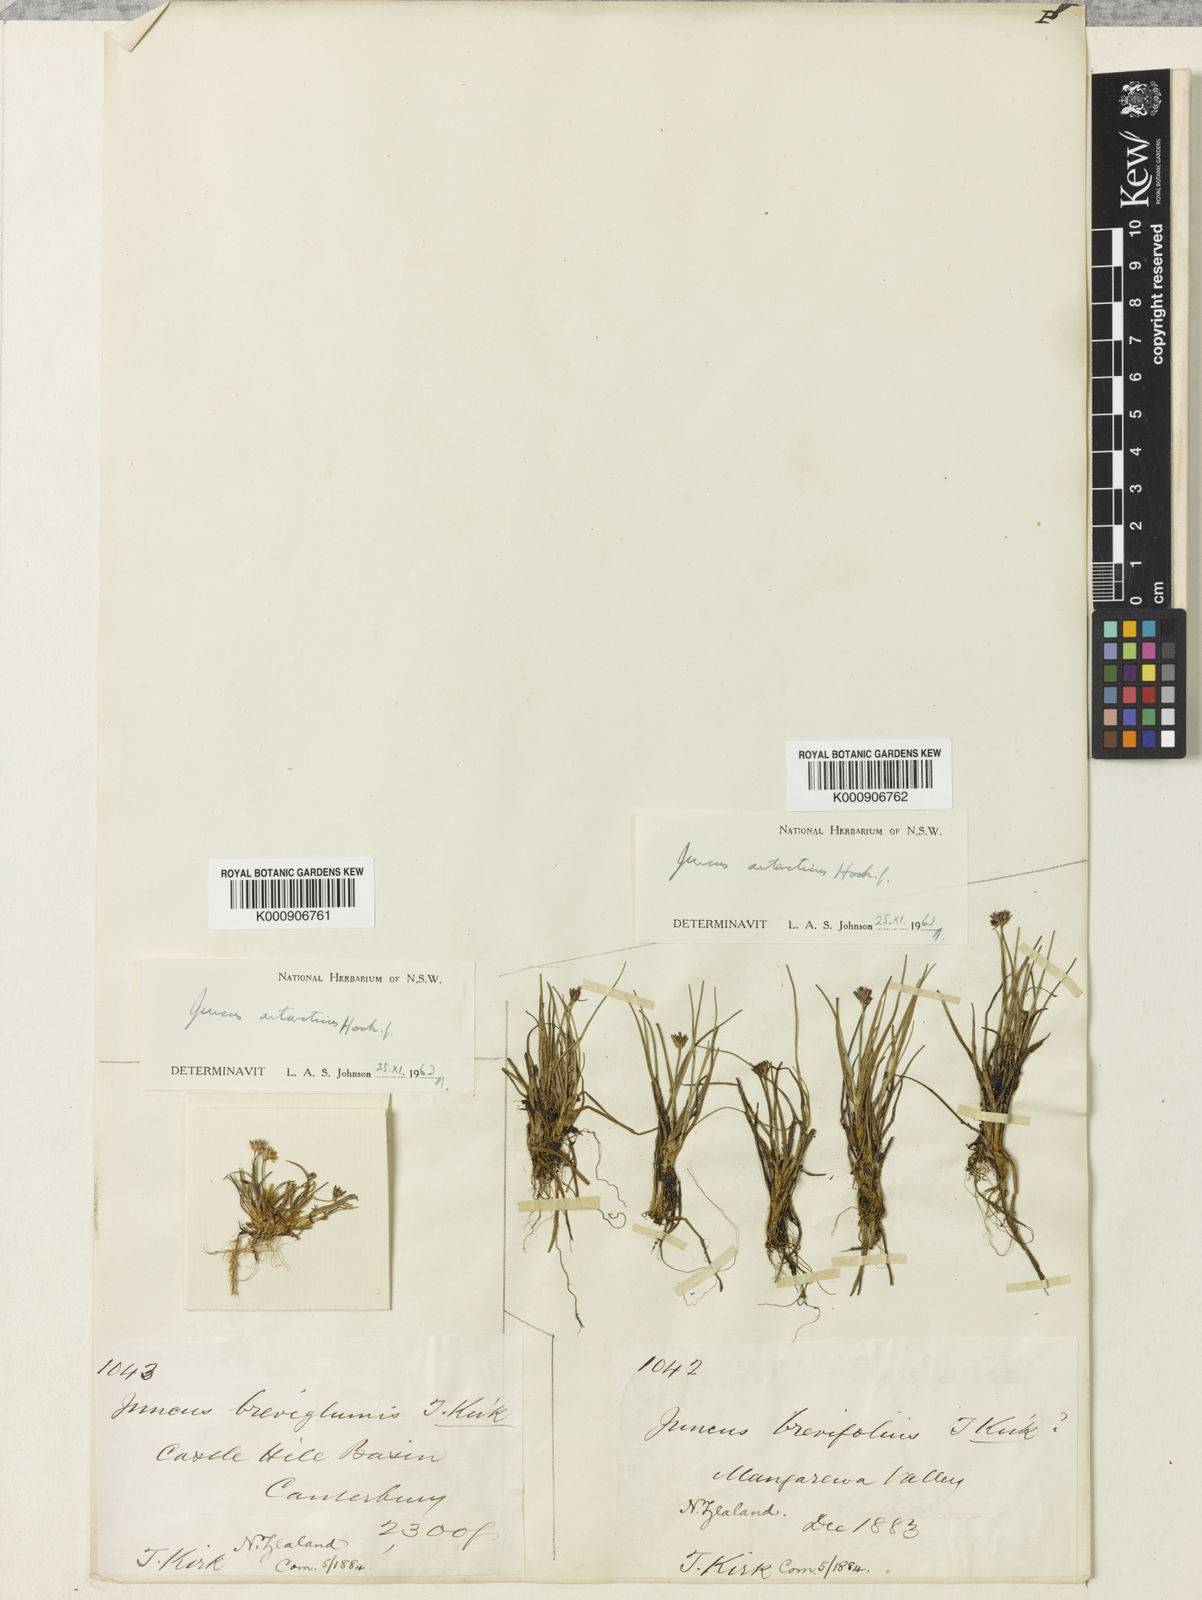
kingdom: Plantae
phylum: Tracheophyta
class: Liliopsida
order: Poales
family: Juncaceae
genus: Juncus
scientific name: Juncus antarcticus
